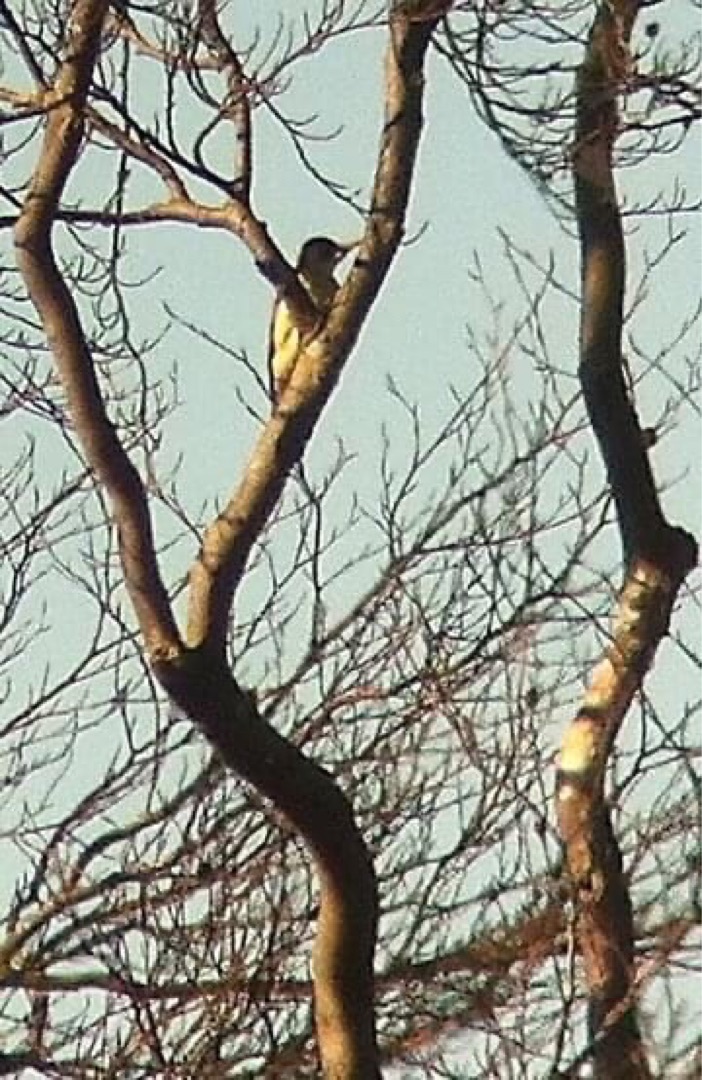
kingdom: Animalia
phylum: Chordata
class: Aves
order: Piciformes
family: Picidae
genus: Picus
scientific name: Picus viridis
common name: Grønspætte
